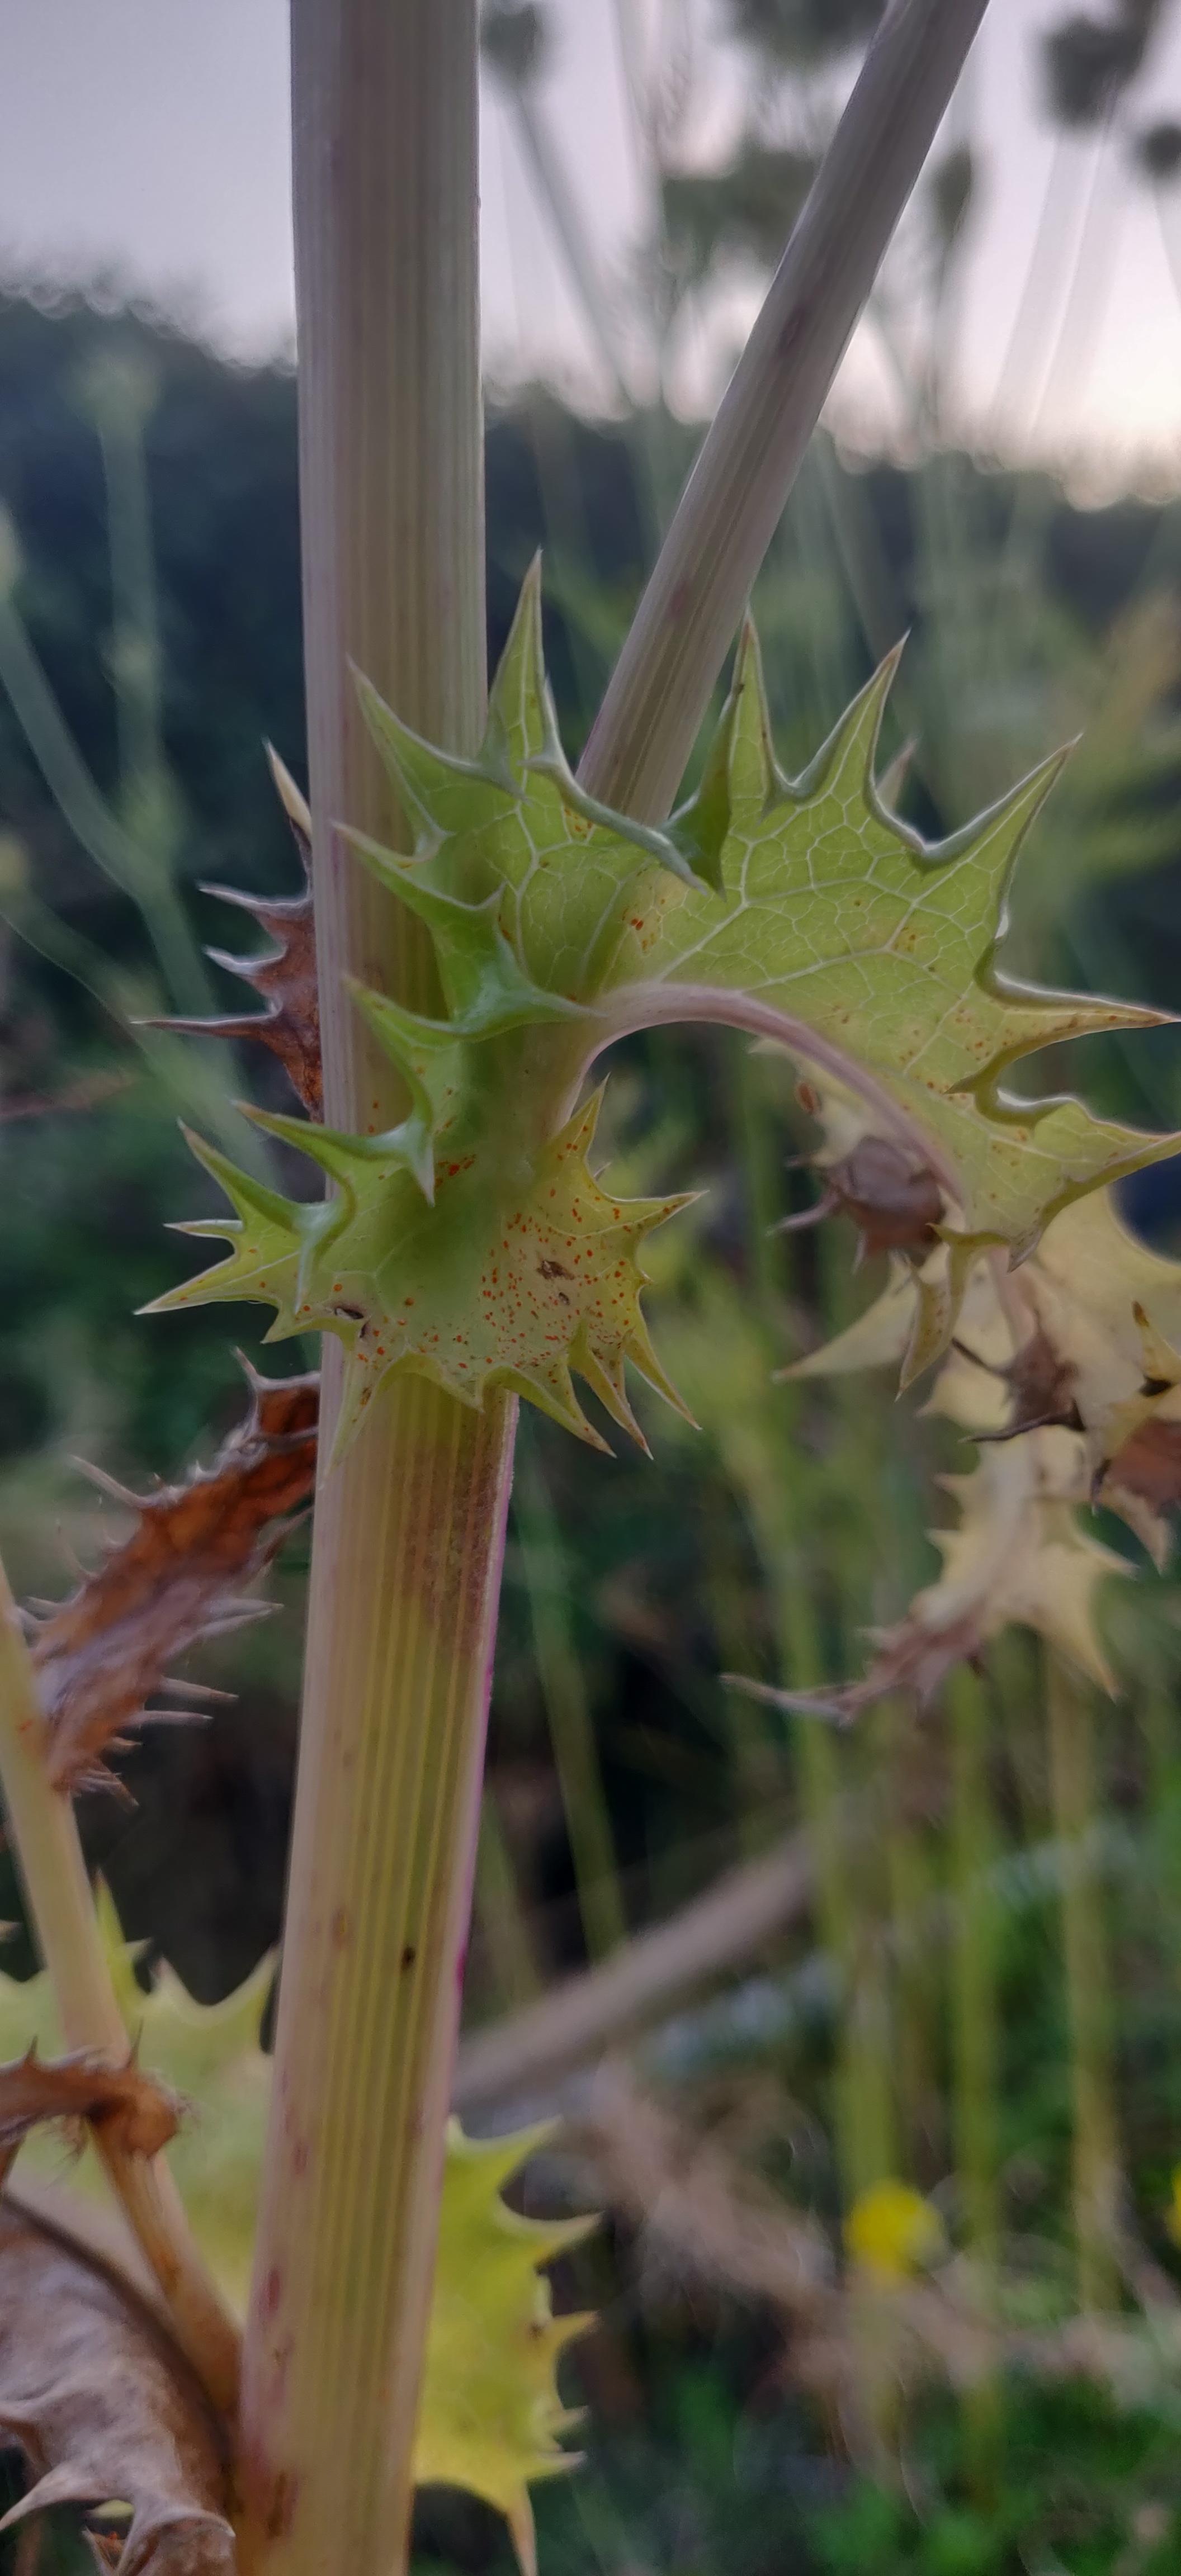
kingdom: Fungi
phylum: Basidiomycota
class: Pucciniomycetes
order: Pucciniales
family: Coleosporiaceae
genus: Coleosporium
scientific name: Coleosporium sonchi
